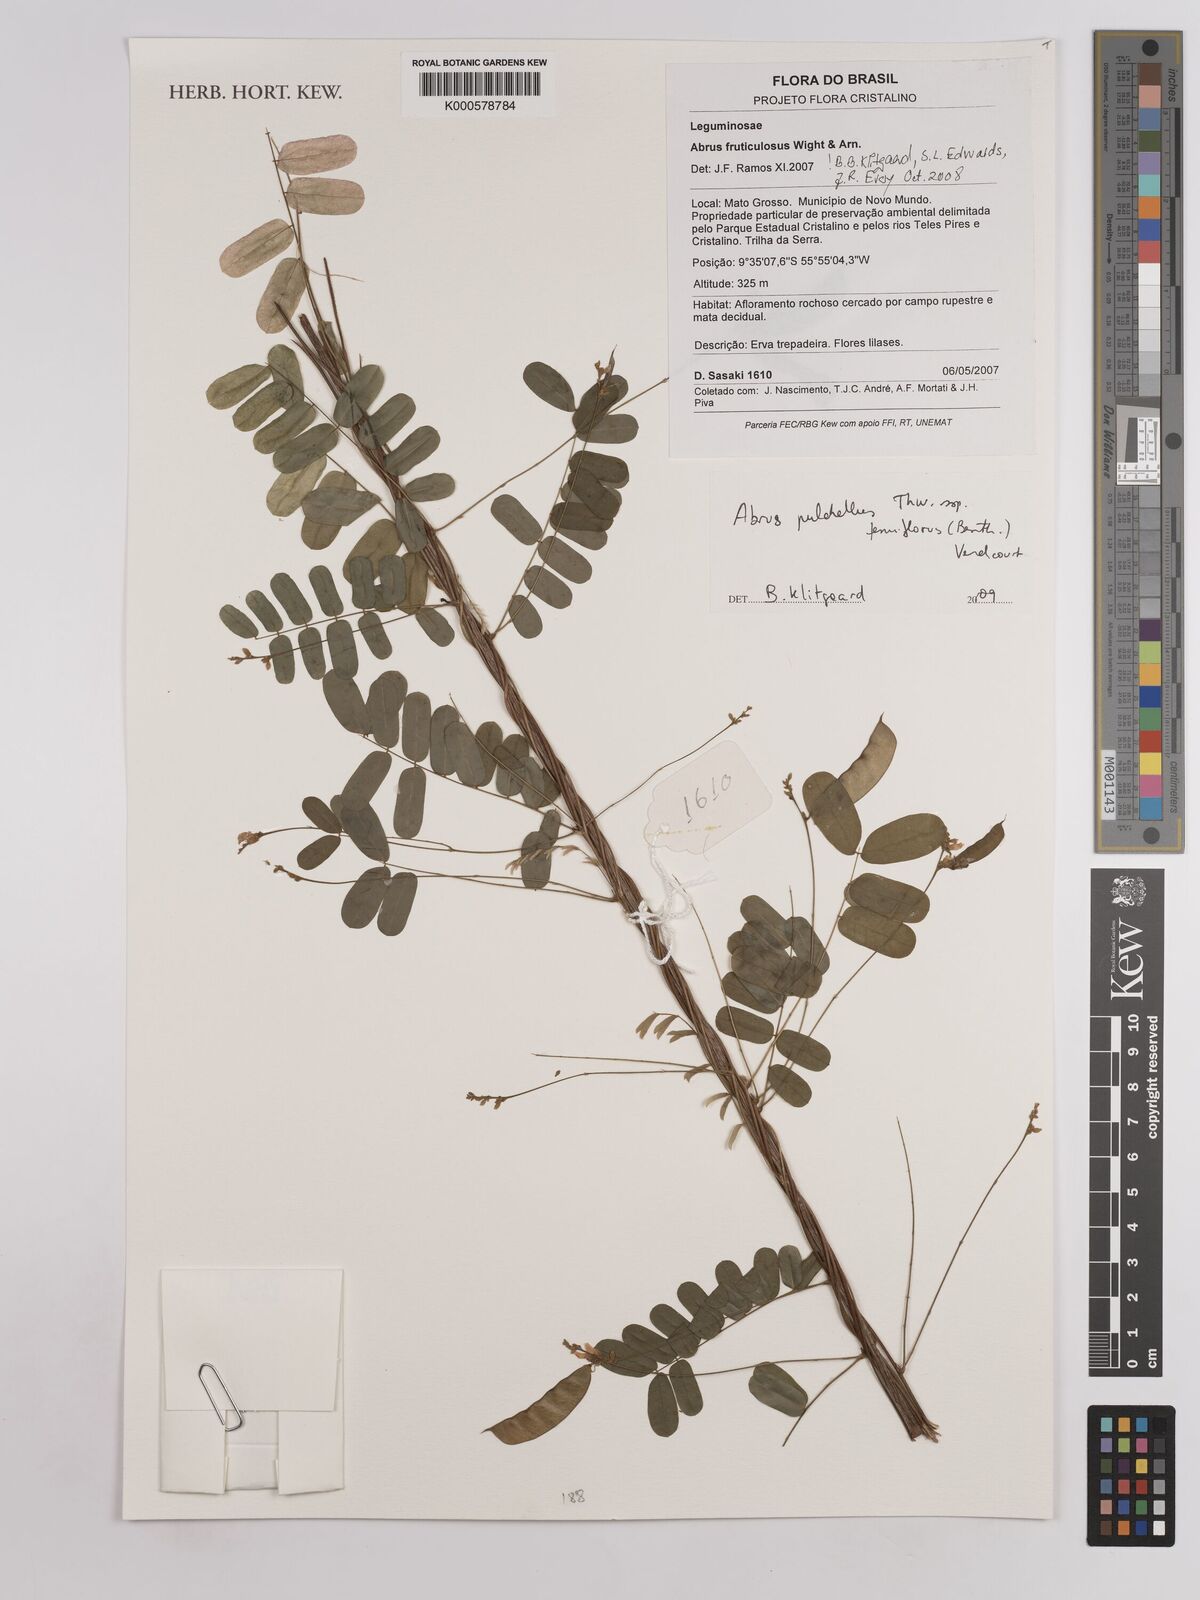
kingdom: Plantae
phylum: Tracheophyta
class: Magnoliopsida
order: Fabales
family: Fabaceae
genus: Abrus
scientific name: Abrus
